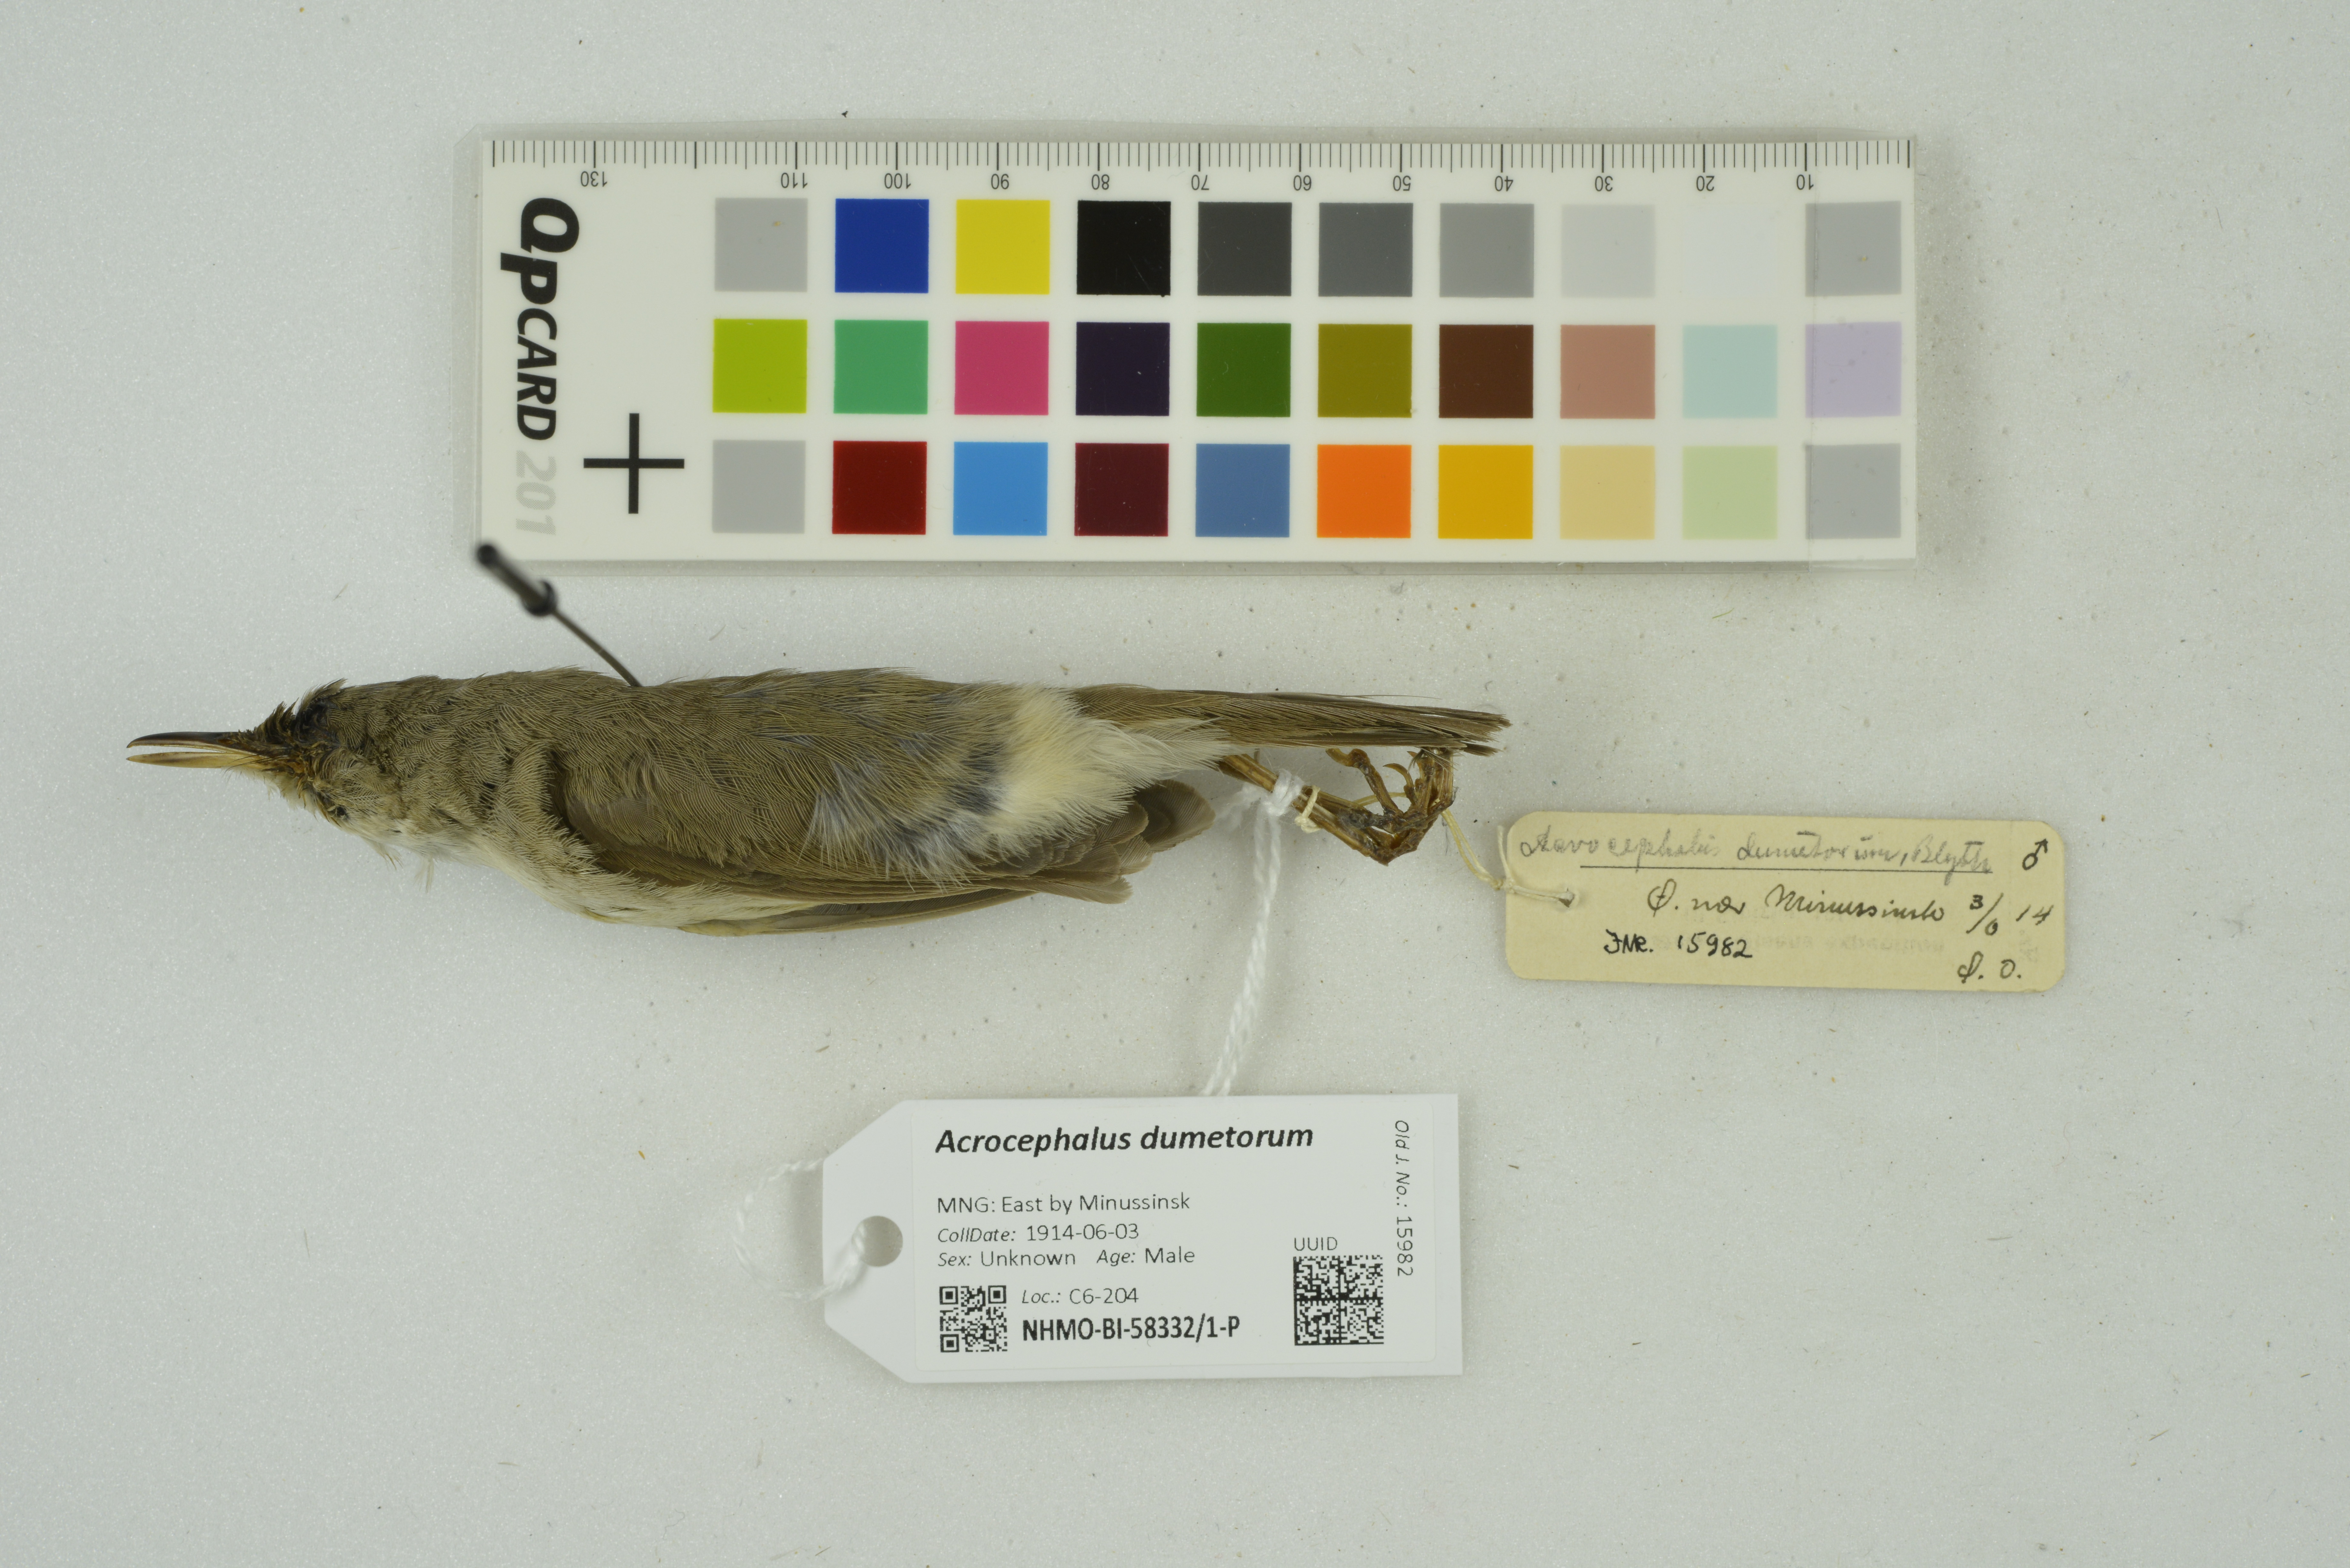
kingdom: Animalia
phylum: Chordata
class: Aves
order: Passeriformes
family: Acrocephalidae
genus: Acrocephalus
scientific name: Acrocephalus dumetorum
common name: Blyth's reed warbler
